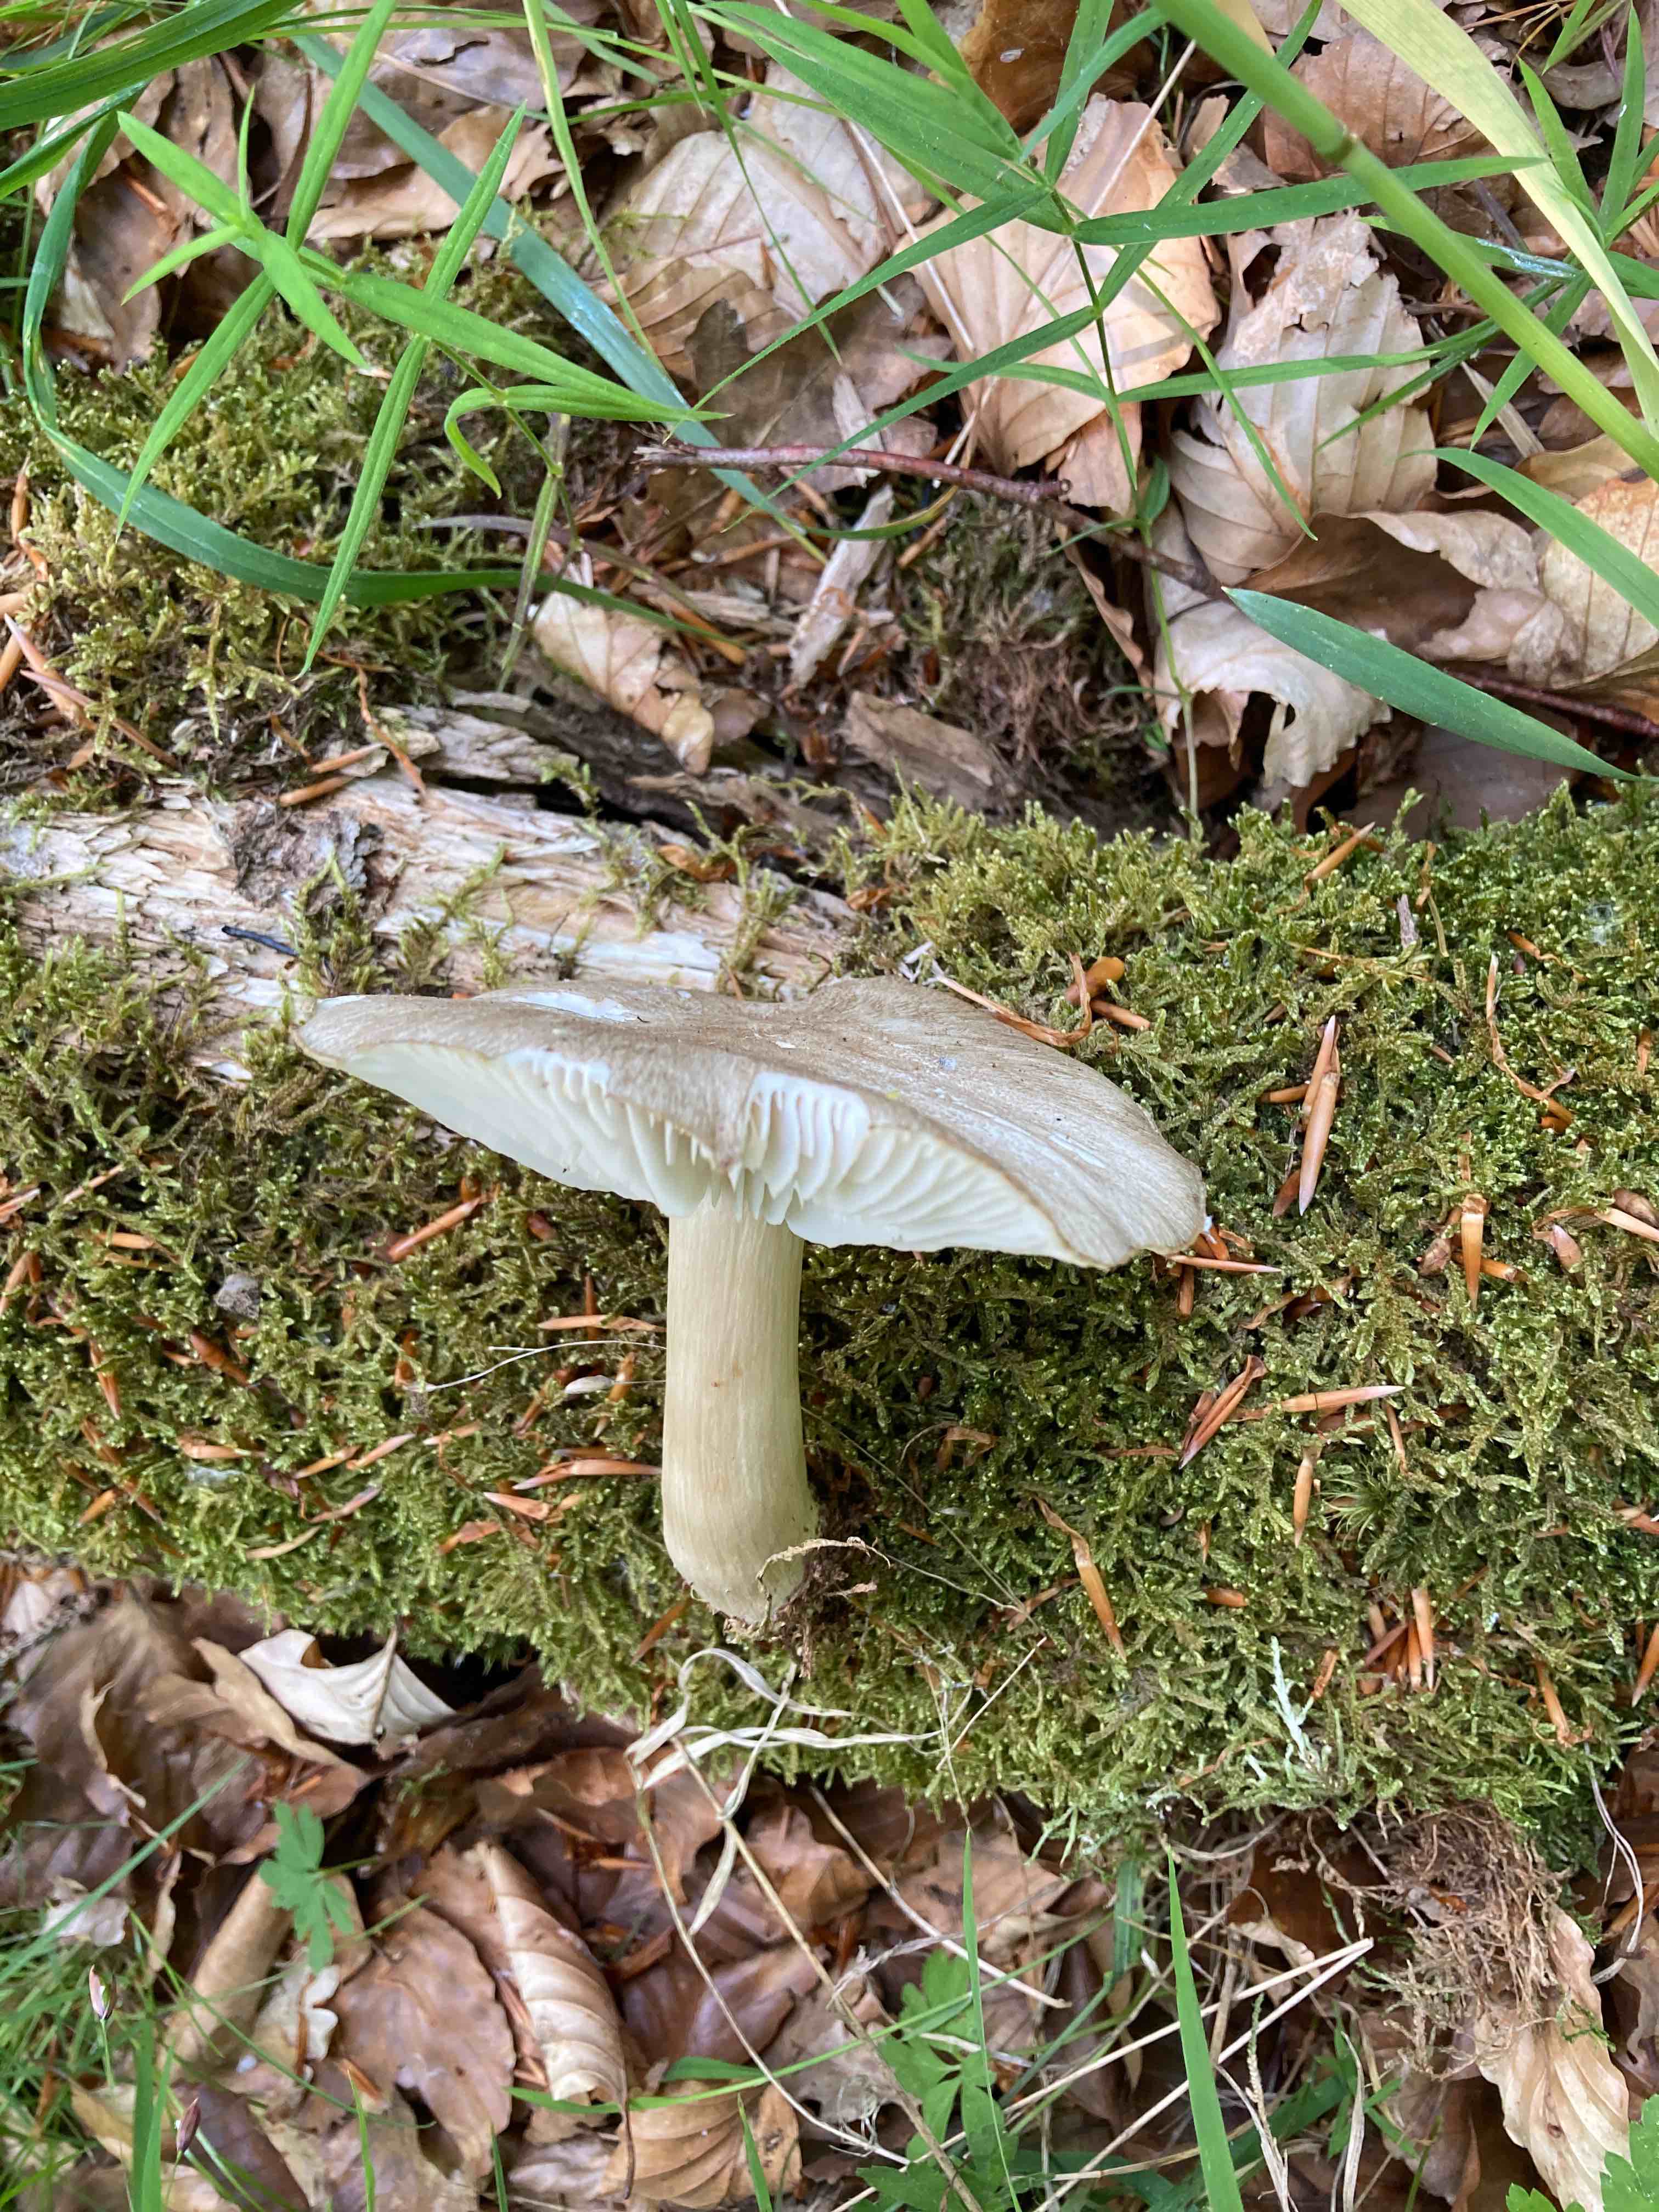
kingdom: Fungi
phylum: Basidiomycota
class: Agaricomycetes
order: Agaricales
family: Tricholomataceae
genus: Megacollybia
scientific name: Megacollybia platyphylla
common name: bredbladet væbnerhat
